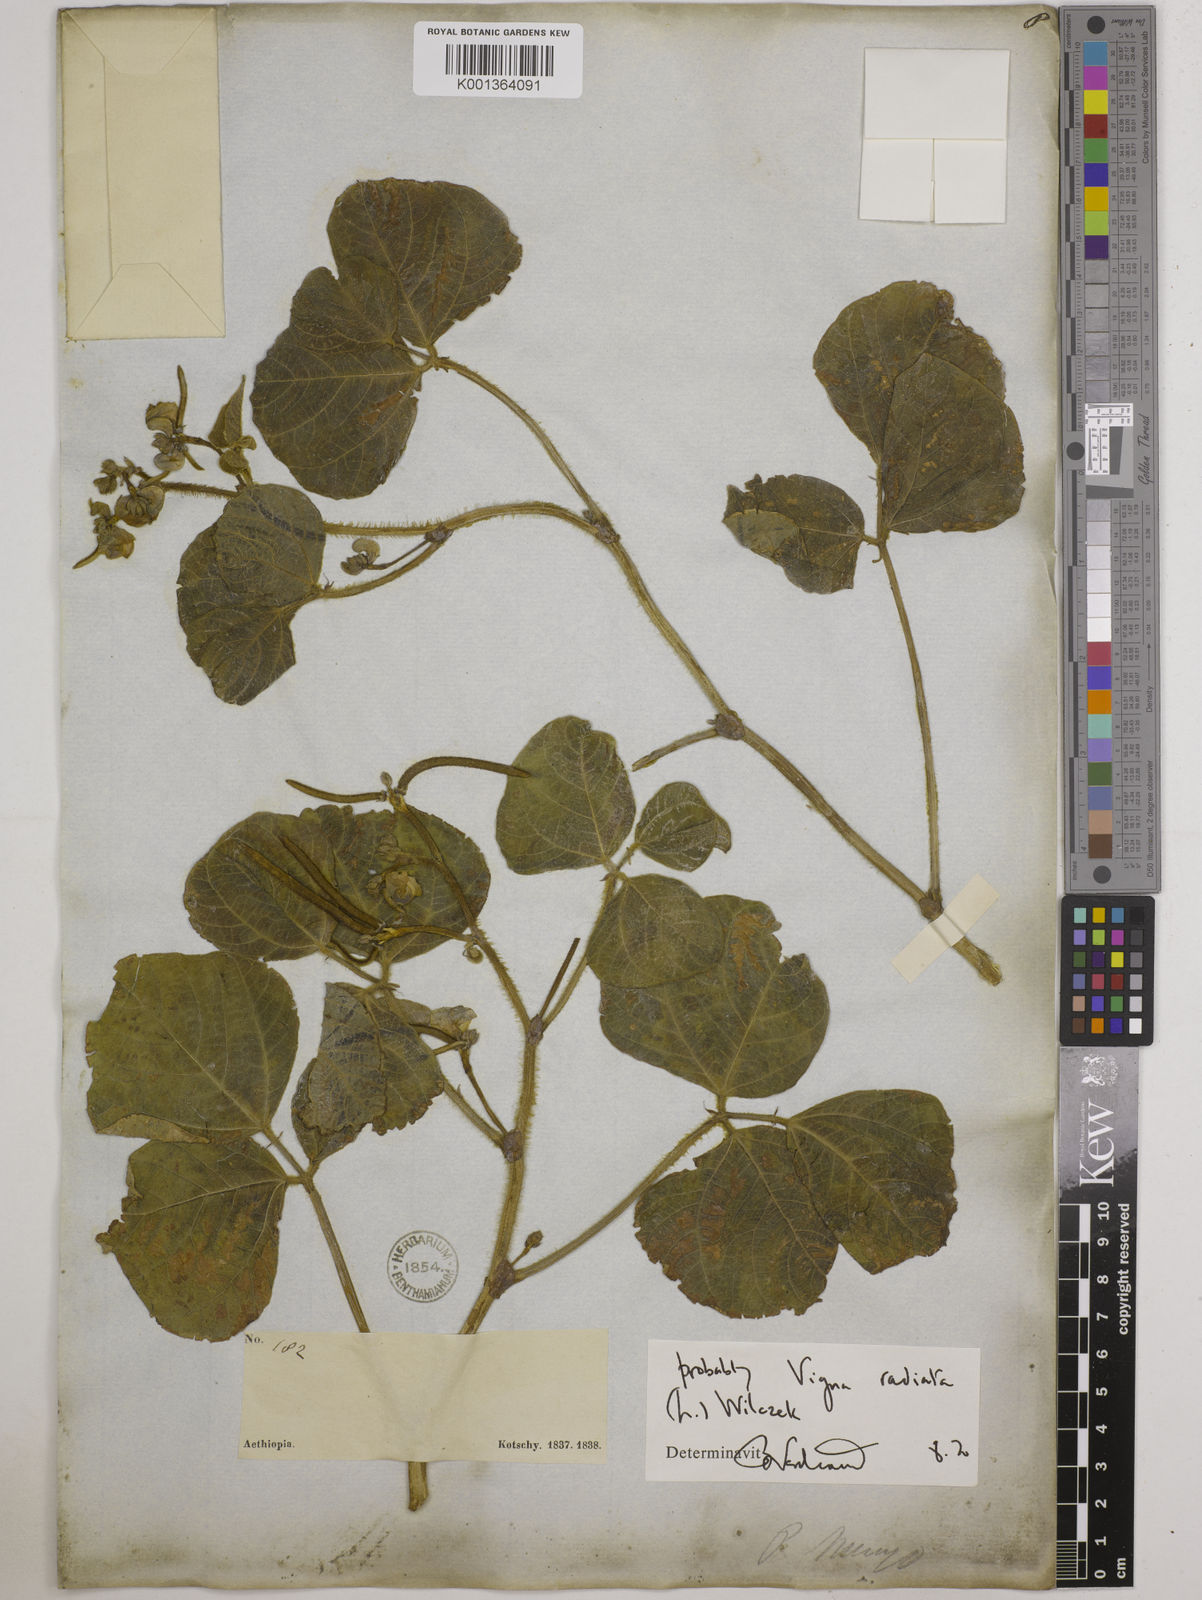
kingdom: Plantae
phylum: Tracheophyta
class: Magnoliopsida
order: Fabales
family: Fabaceae
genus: Vigna
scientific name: Vigna radiata
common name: Mung-bean
